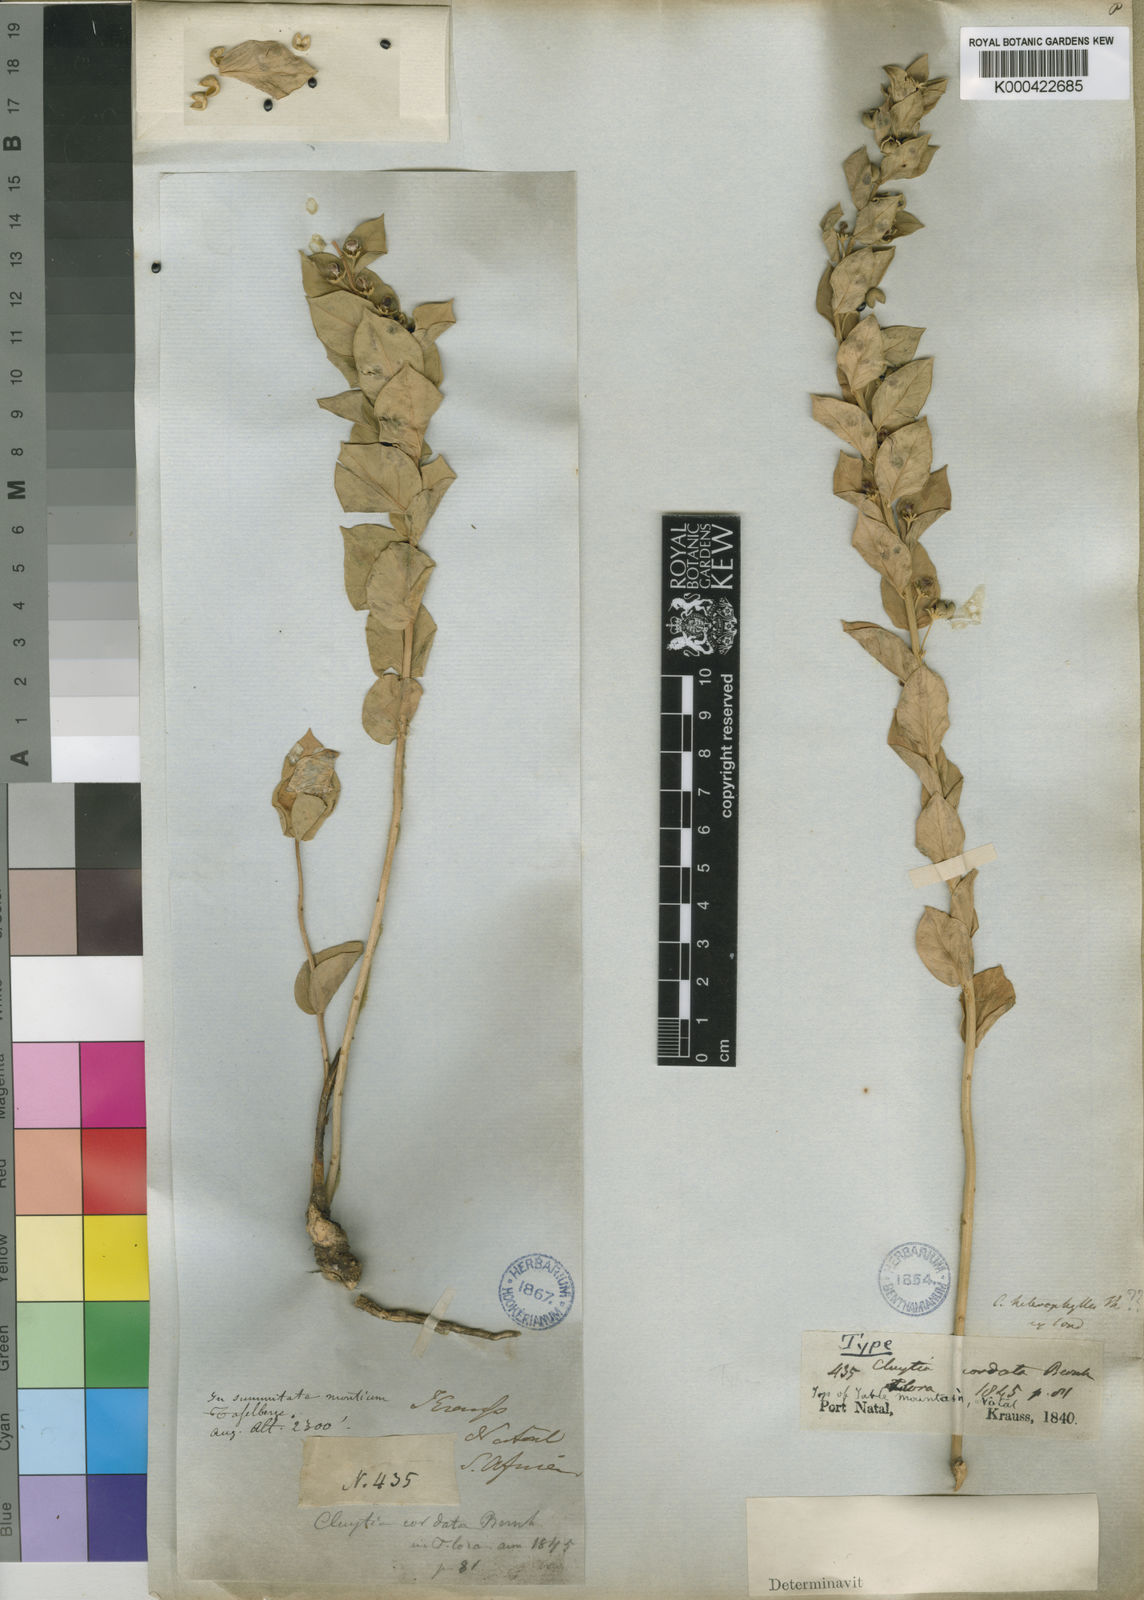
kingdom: Plantae
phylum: Tracheophyta
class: Magnoliopsida
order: Malpighiales
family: Peraceae
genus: Clutia
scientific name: Clutia cordata
